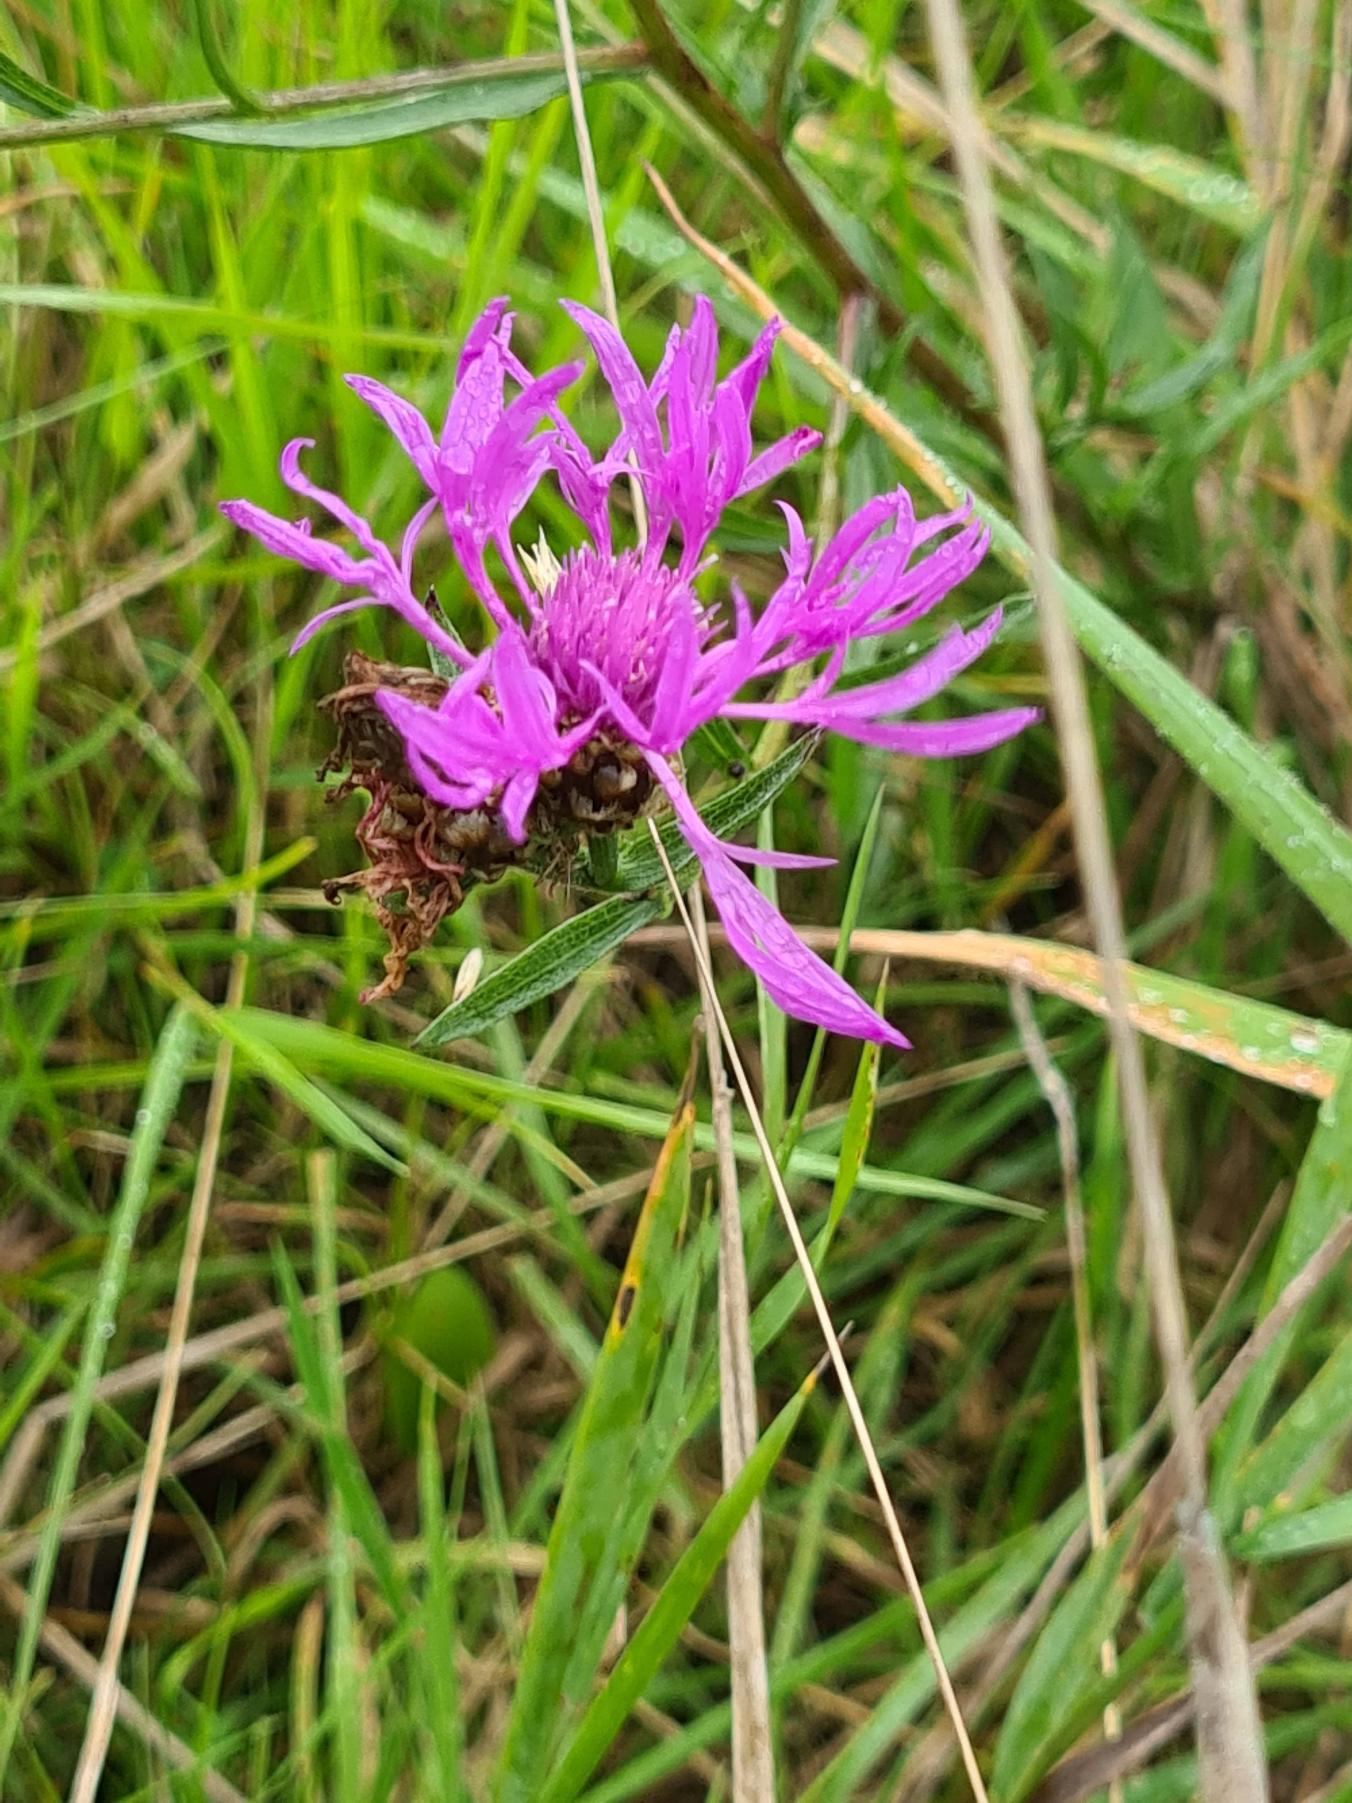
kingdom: Plantae
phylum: Tracheophyta
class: Magnoliopsida
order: Asterales
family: Asteraceae
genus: Centaurea
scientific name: Centaurea jacea
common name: Almindelig knopurt
